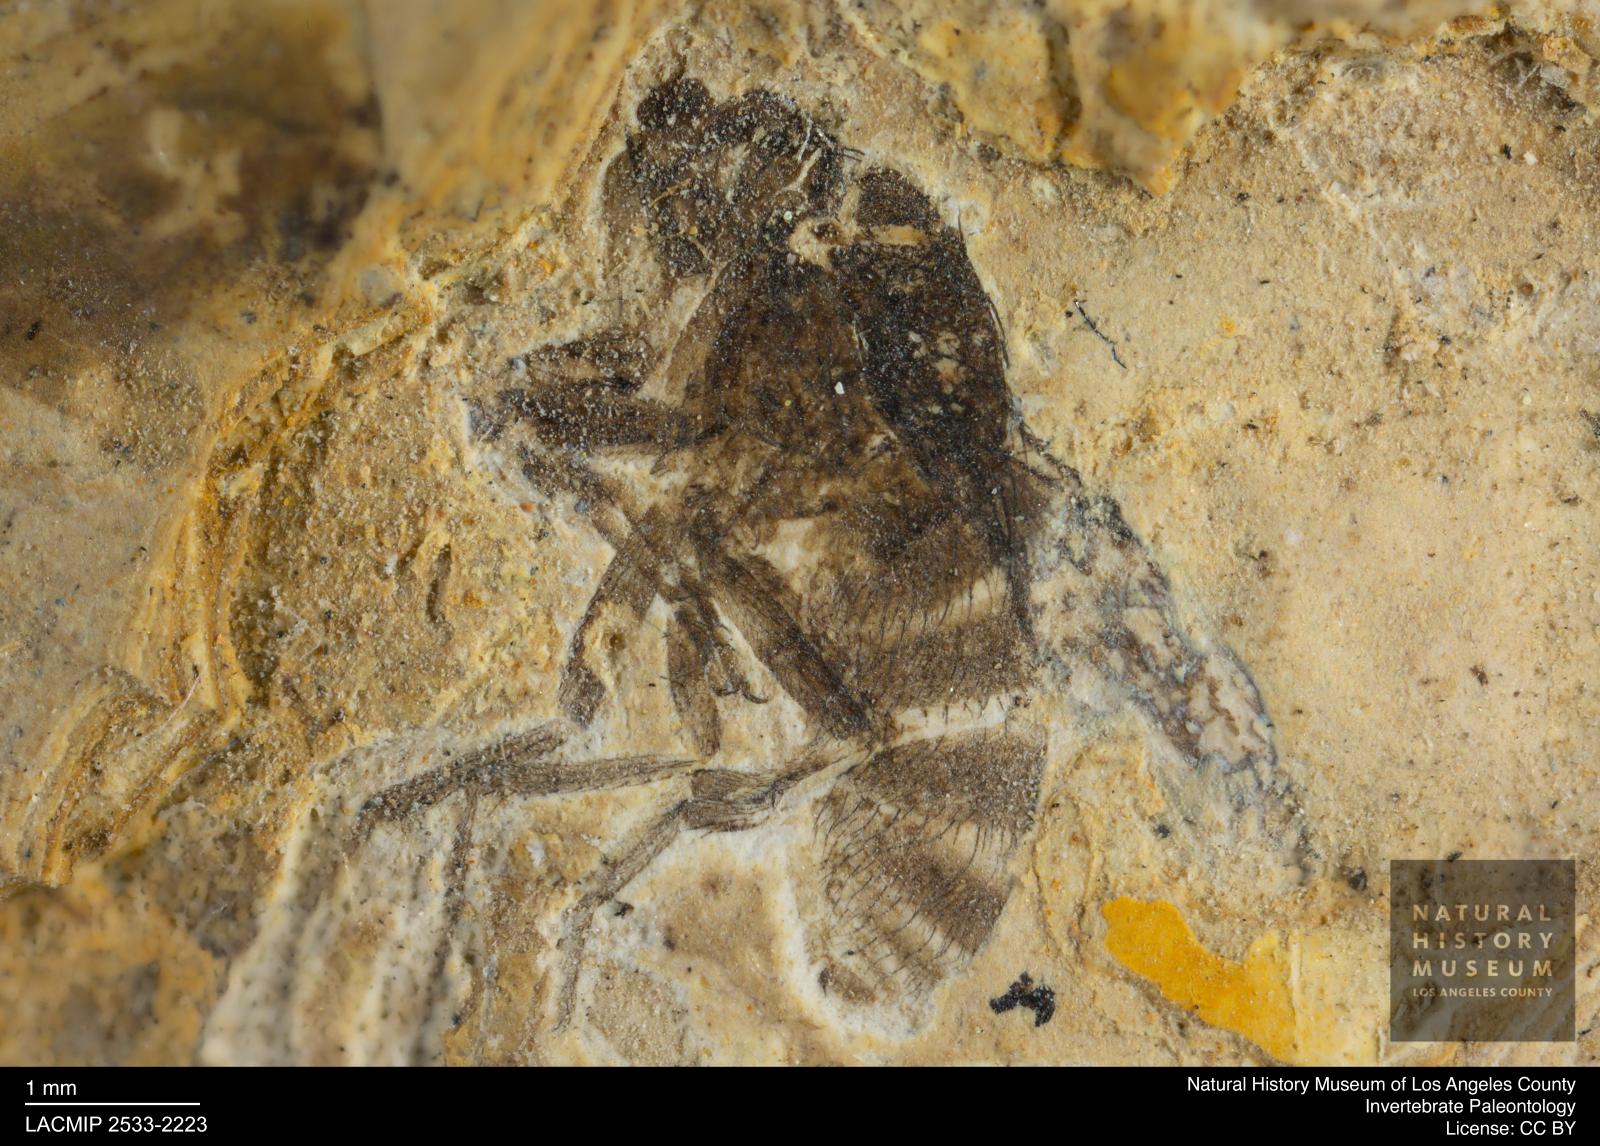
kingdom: Animalia
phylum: Arthropoda
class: Insecta
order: Diptera
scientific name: Diptera
